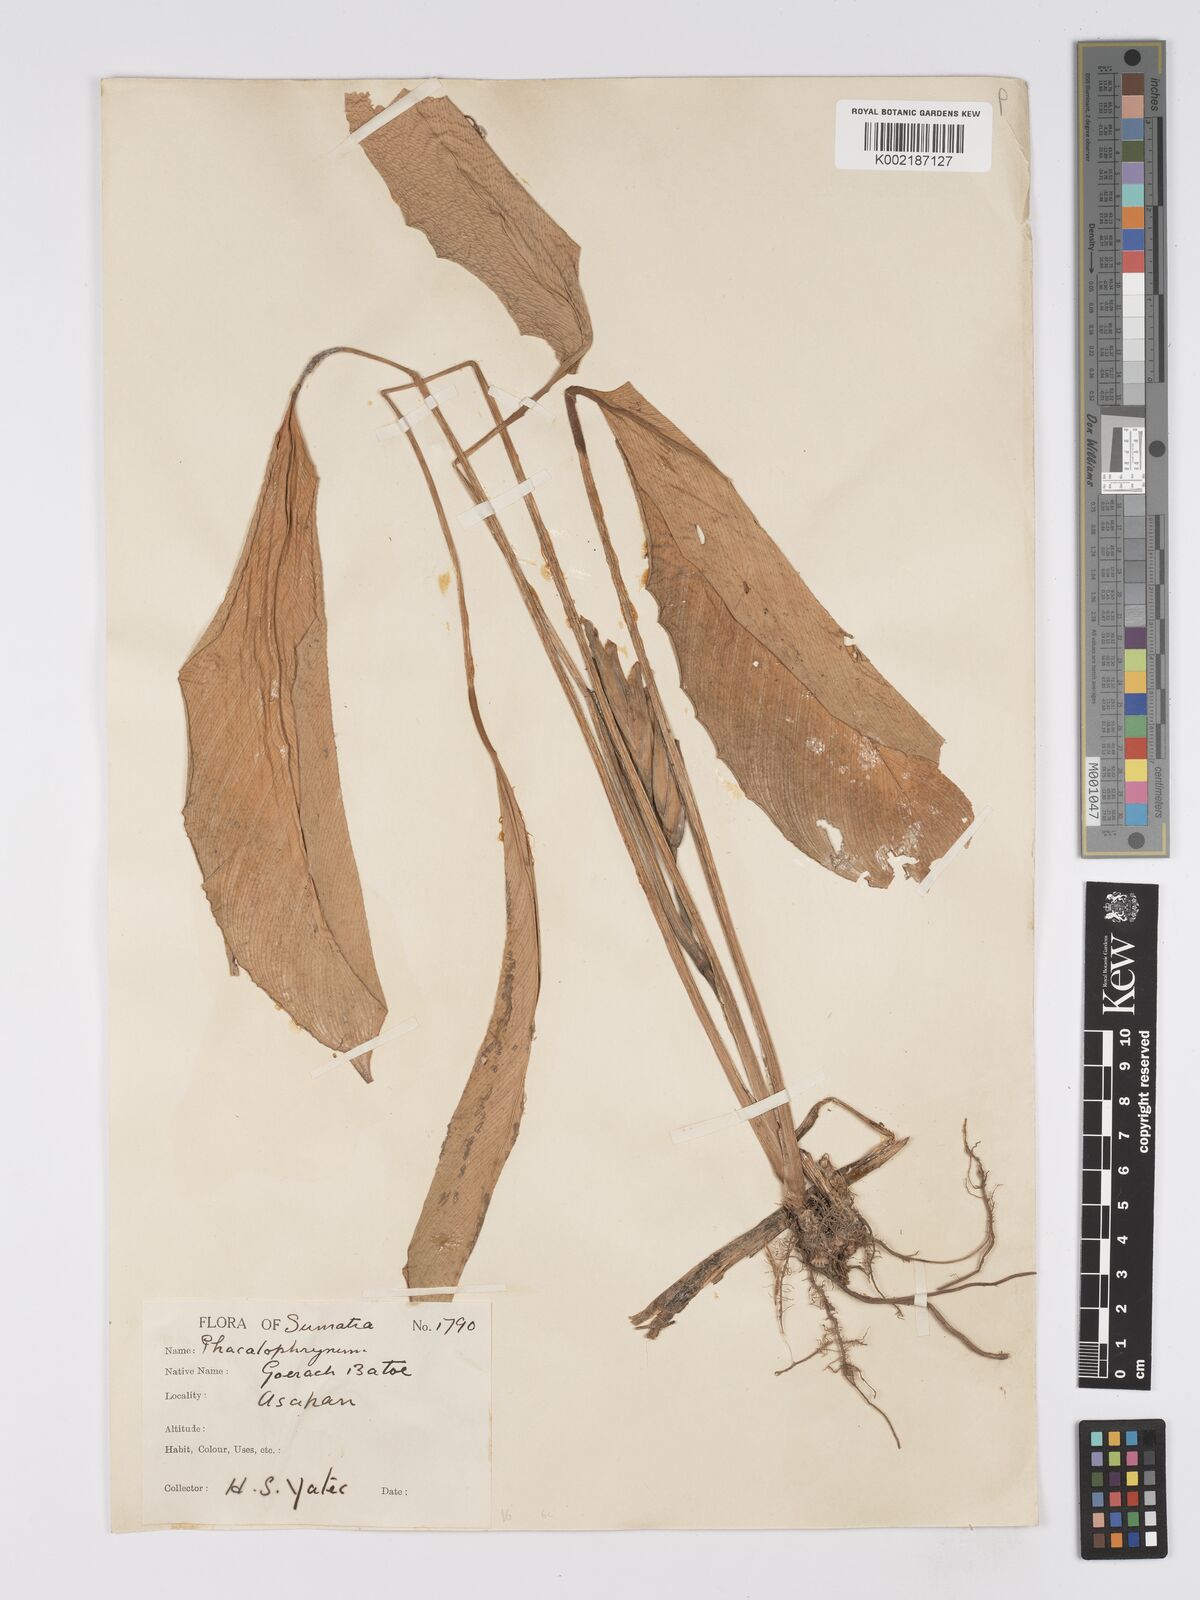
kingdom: Plantae
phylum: Tracheophyta
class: Liliopsida
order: Zingiberales
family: Marantaceae
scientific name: Marantaceae
